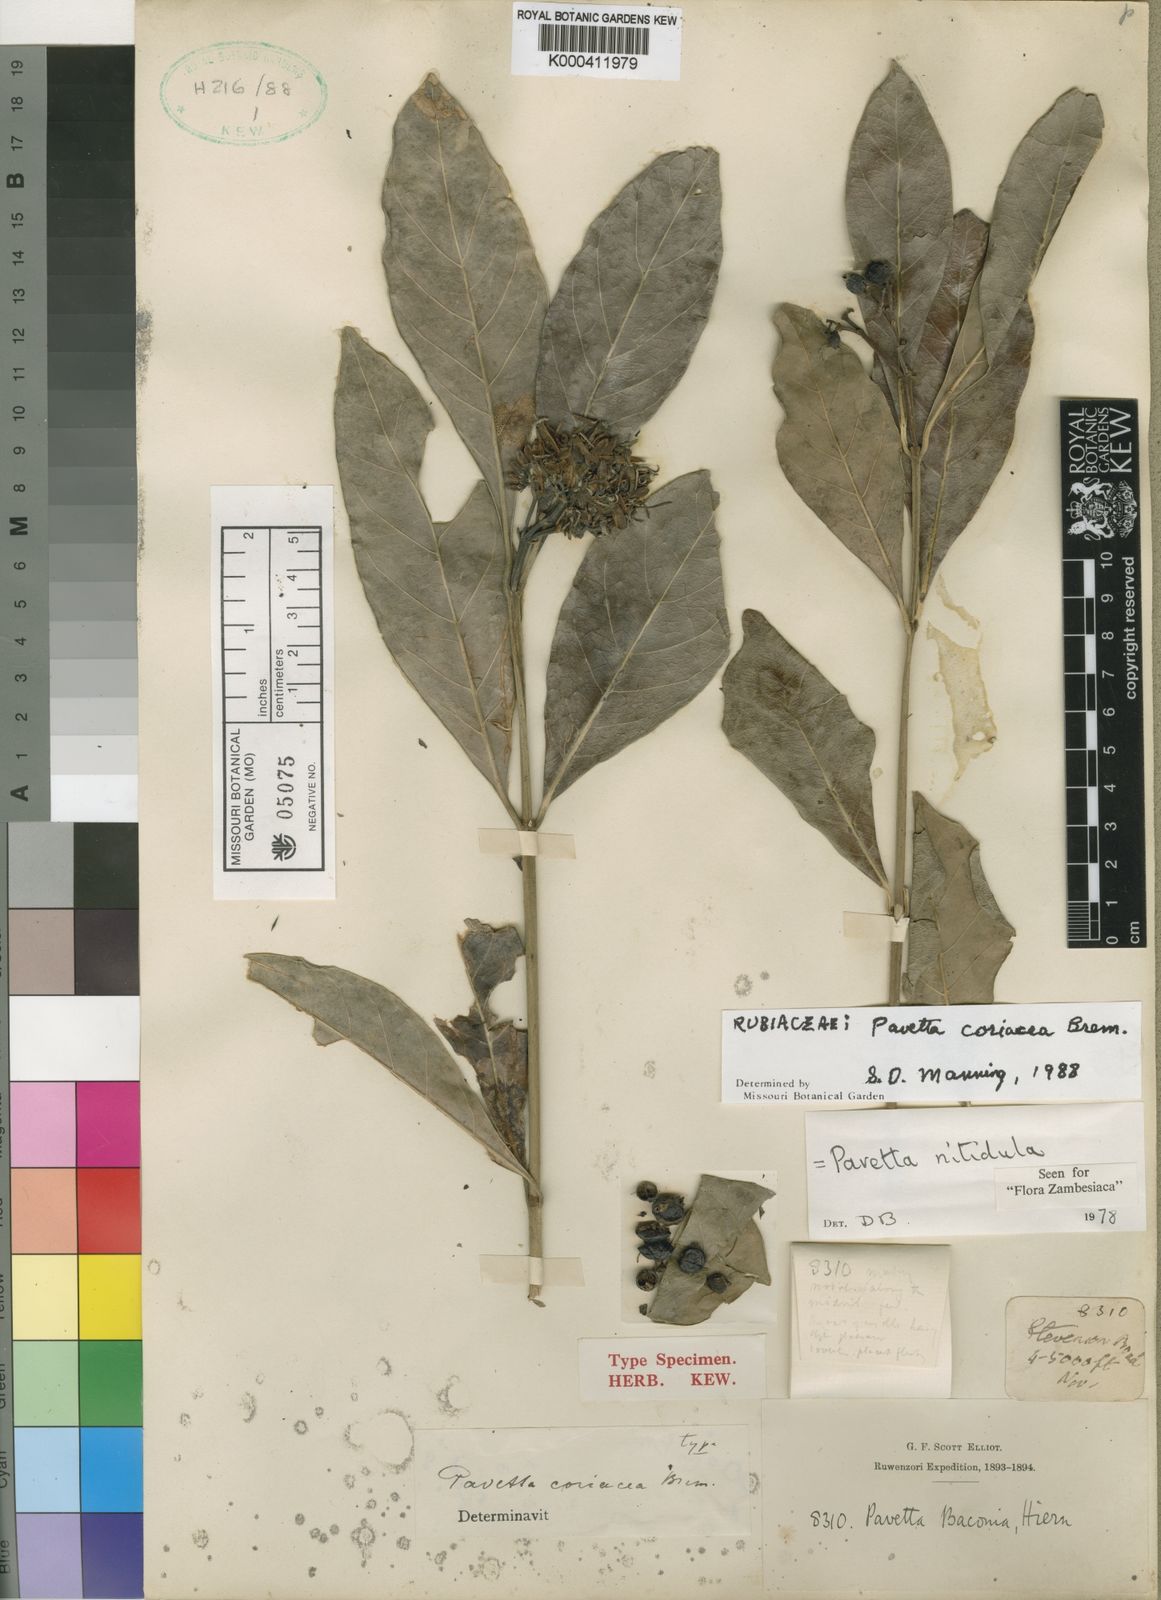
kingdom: Plantae
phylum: Tracheophyta
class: Magnoliopsida
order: Gentianales
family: Rubiaceae
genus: Pavetta
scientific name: Pavetta nitidula
